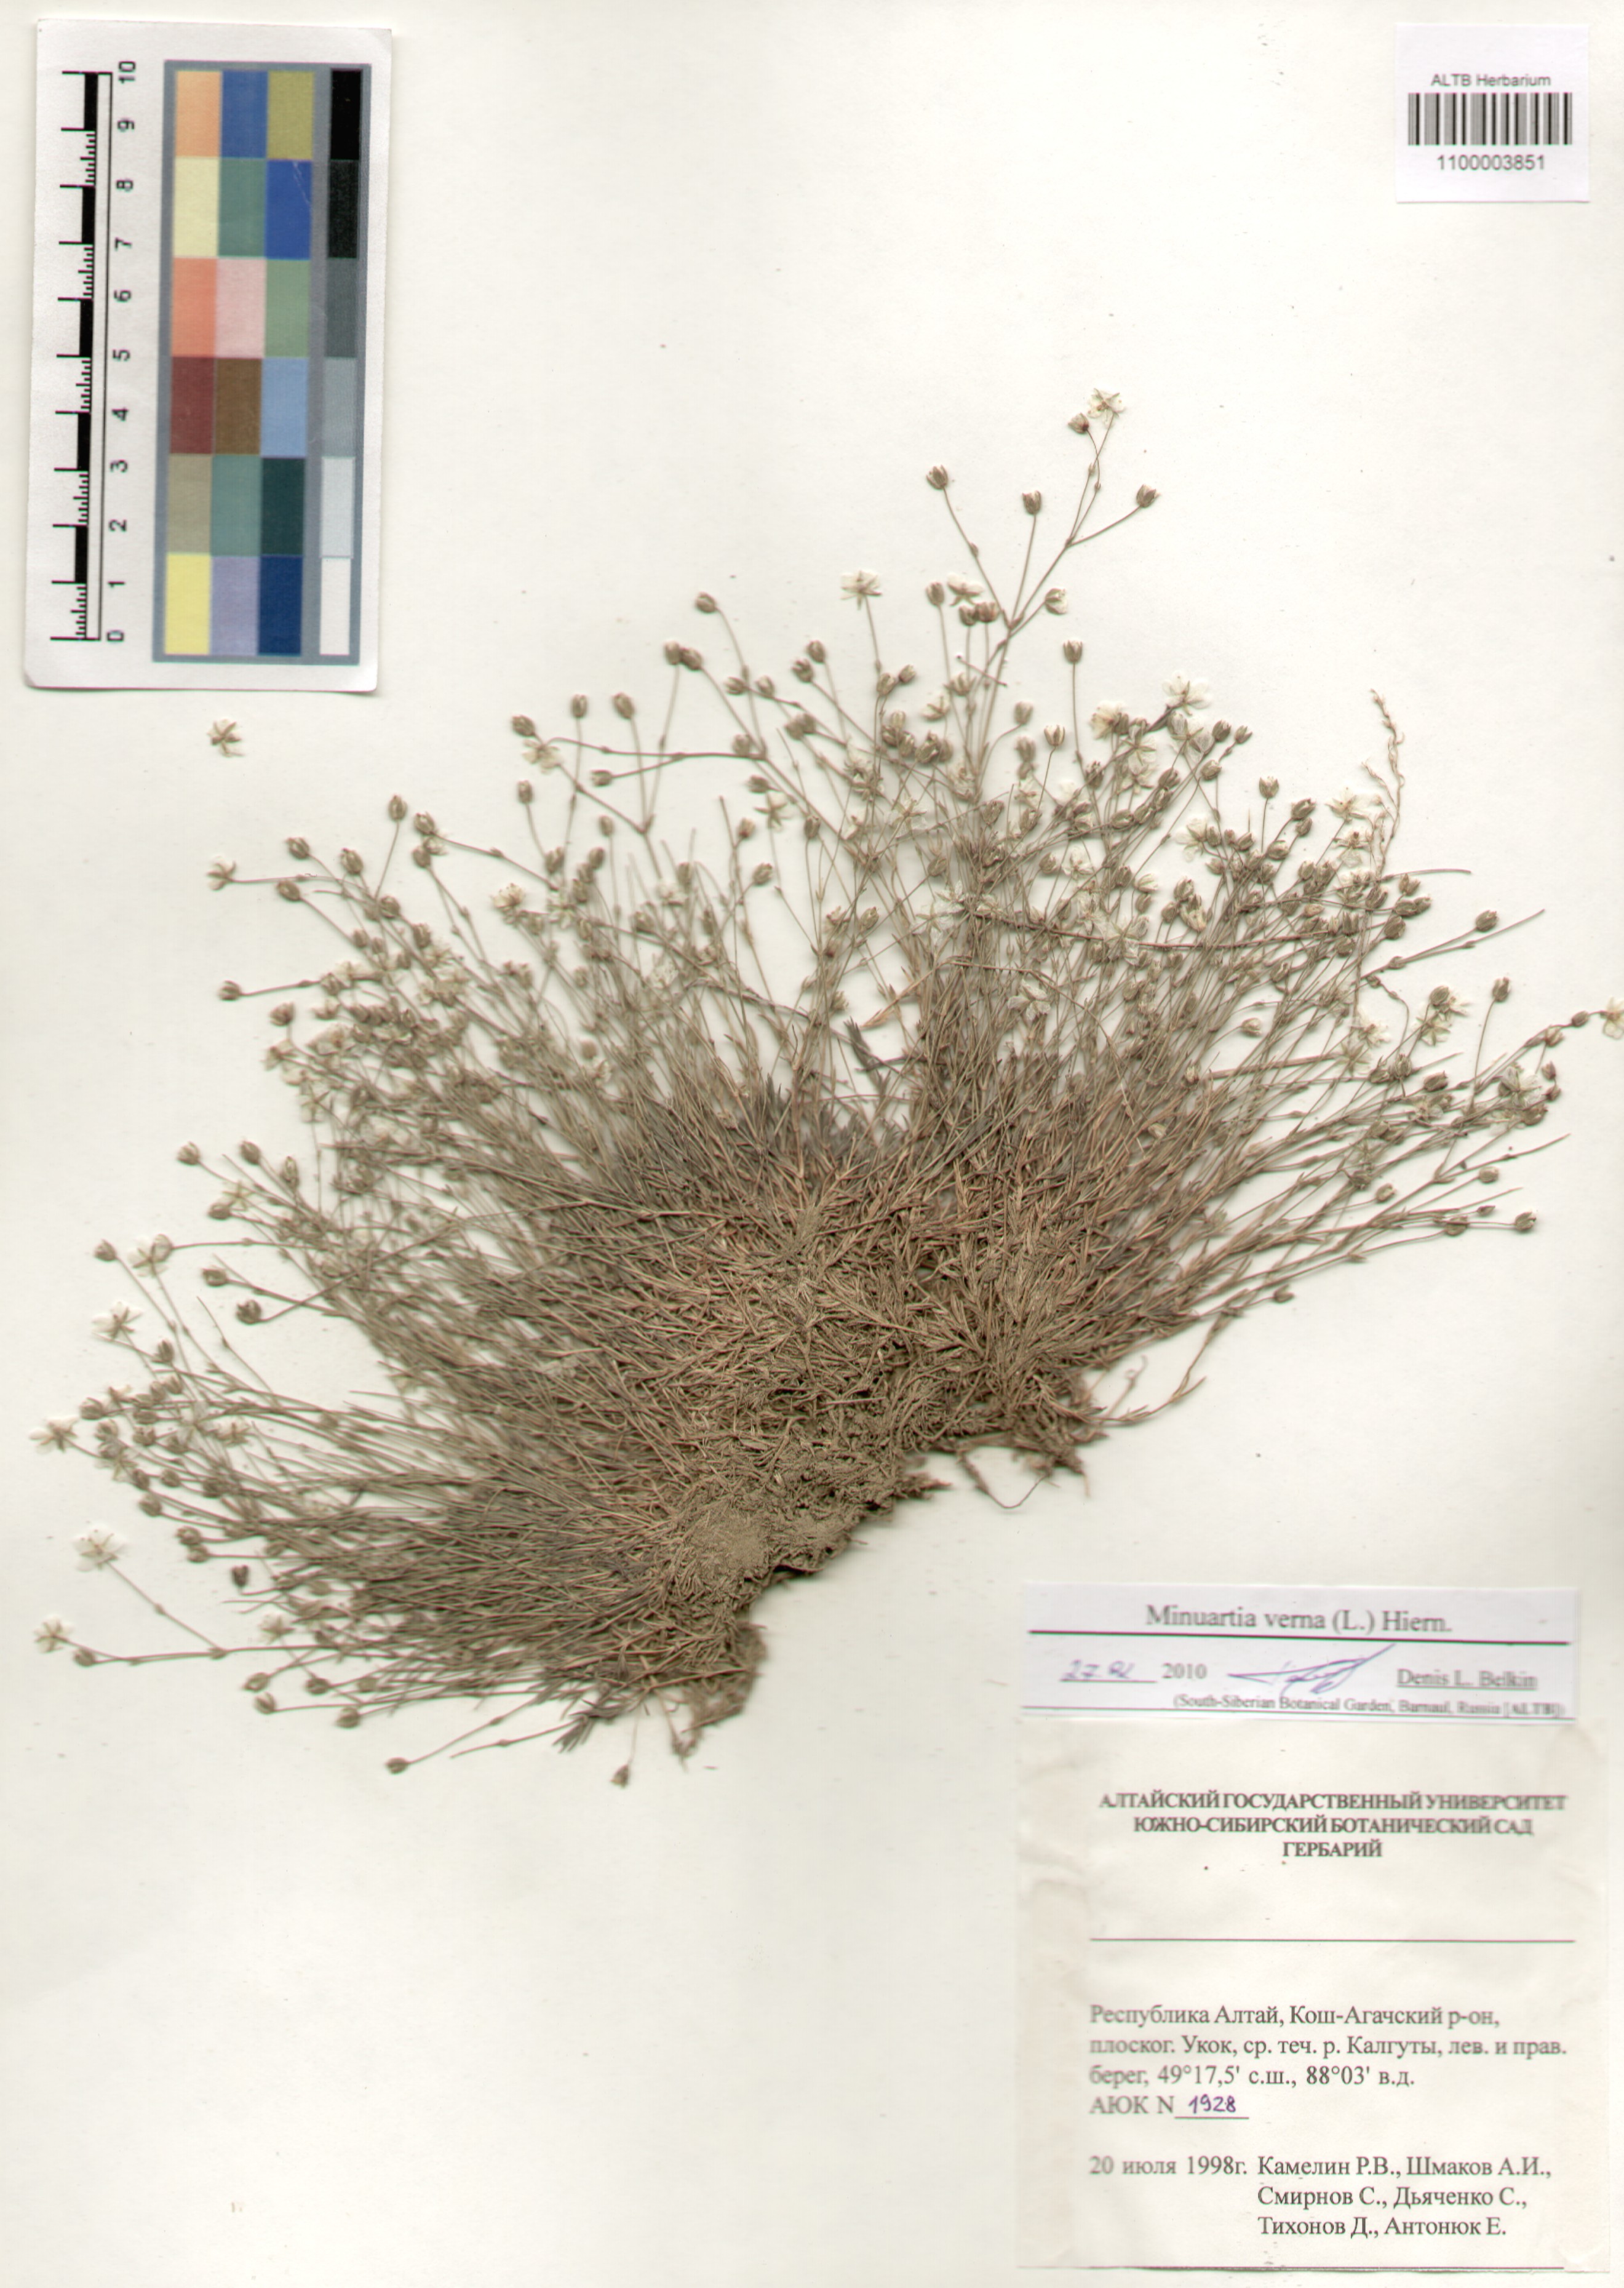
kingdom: Plantae
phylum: Tracheophyta
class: Magnoliopsida
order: Caryophyllales
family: Caryophyllaceae
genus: Sabulina
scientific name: Sabulina verna
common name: Spring sandwort
